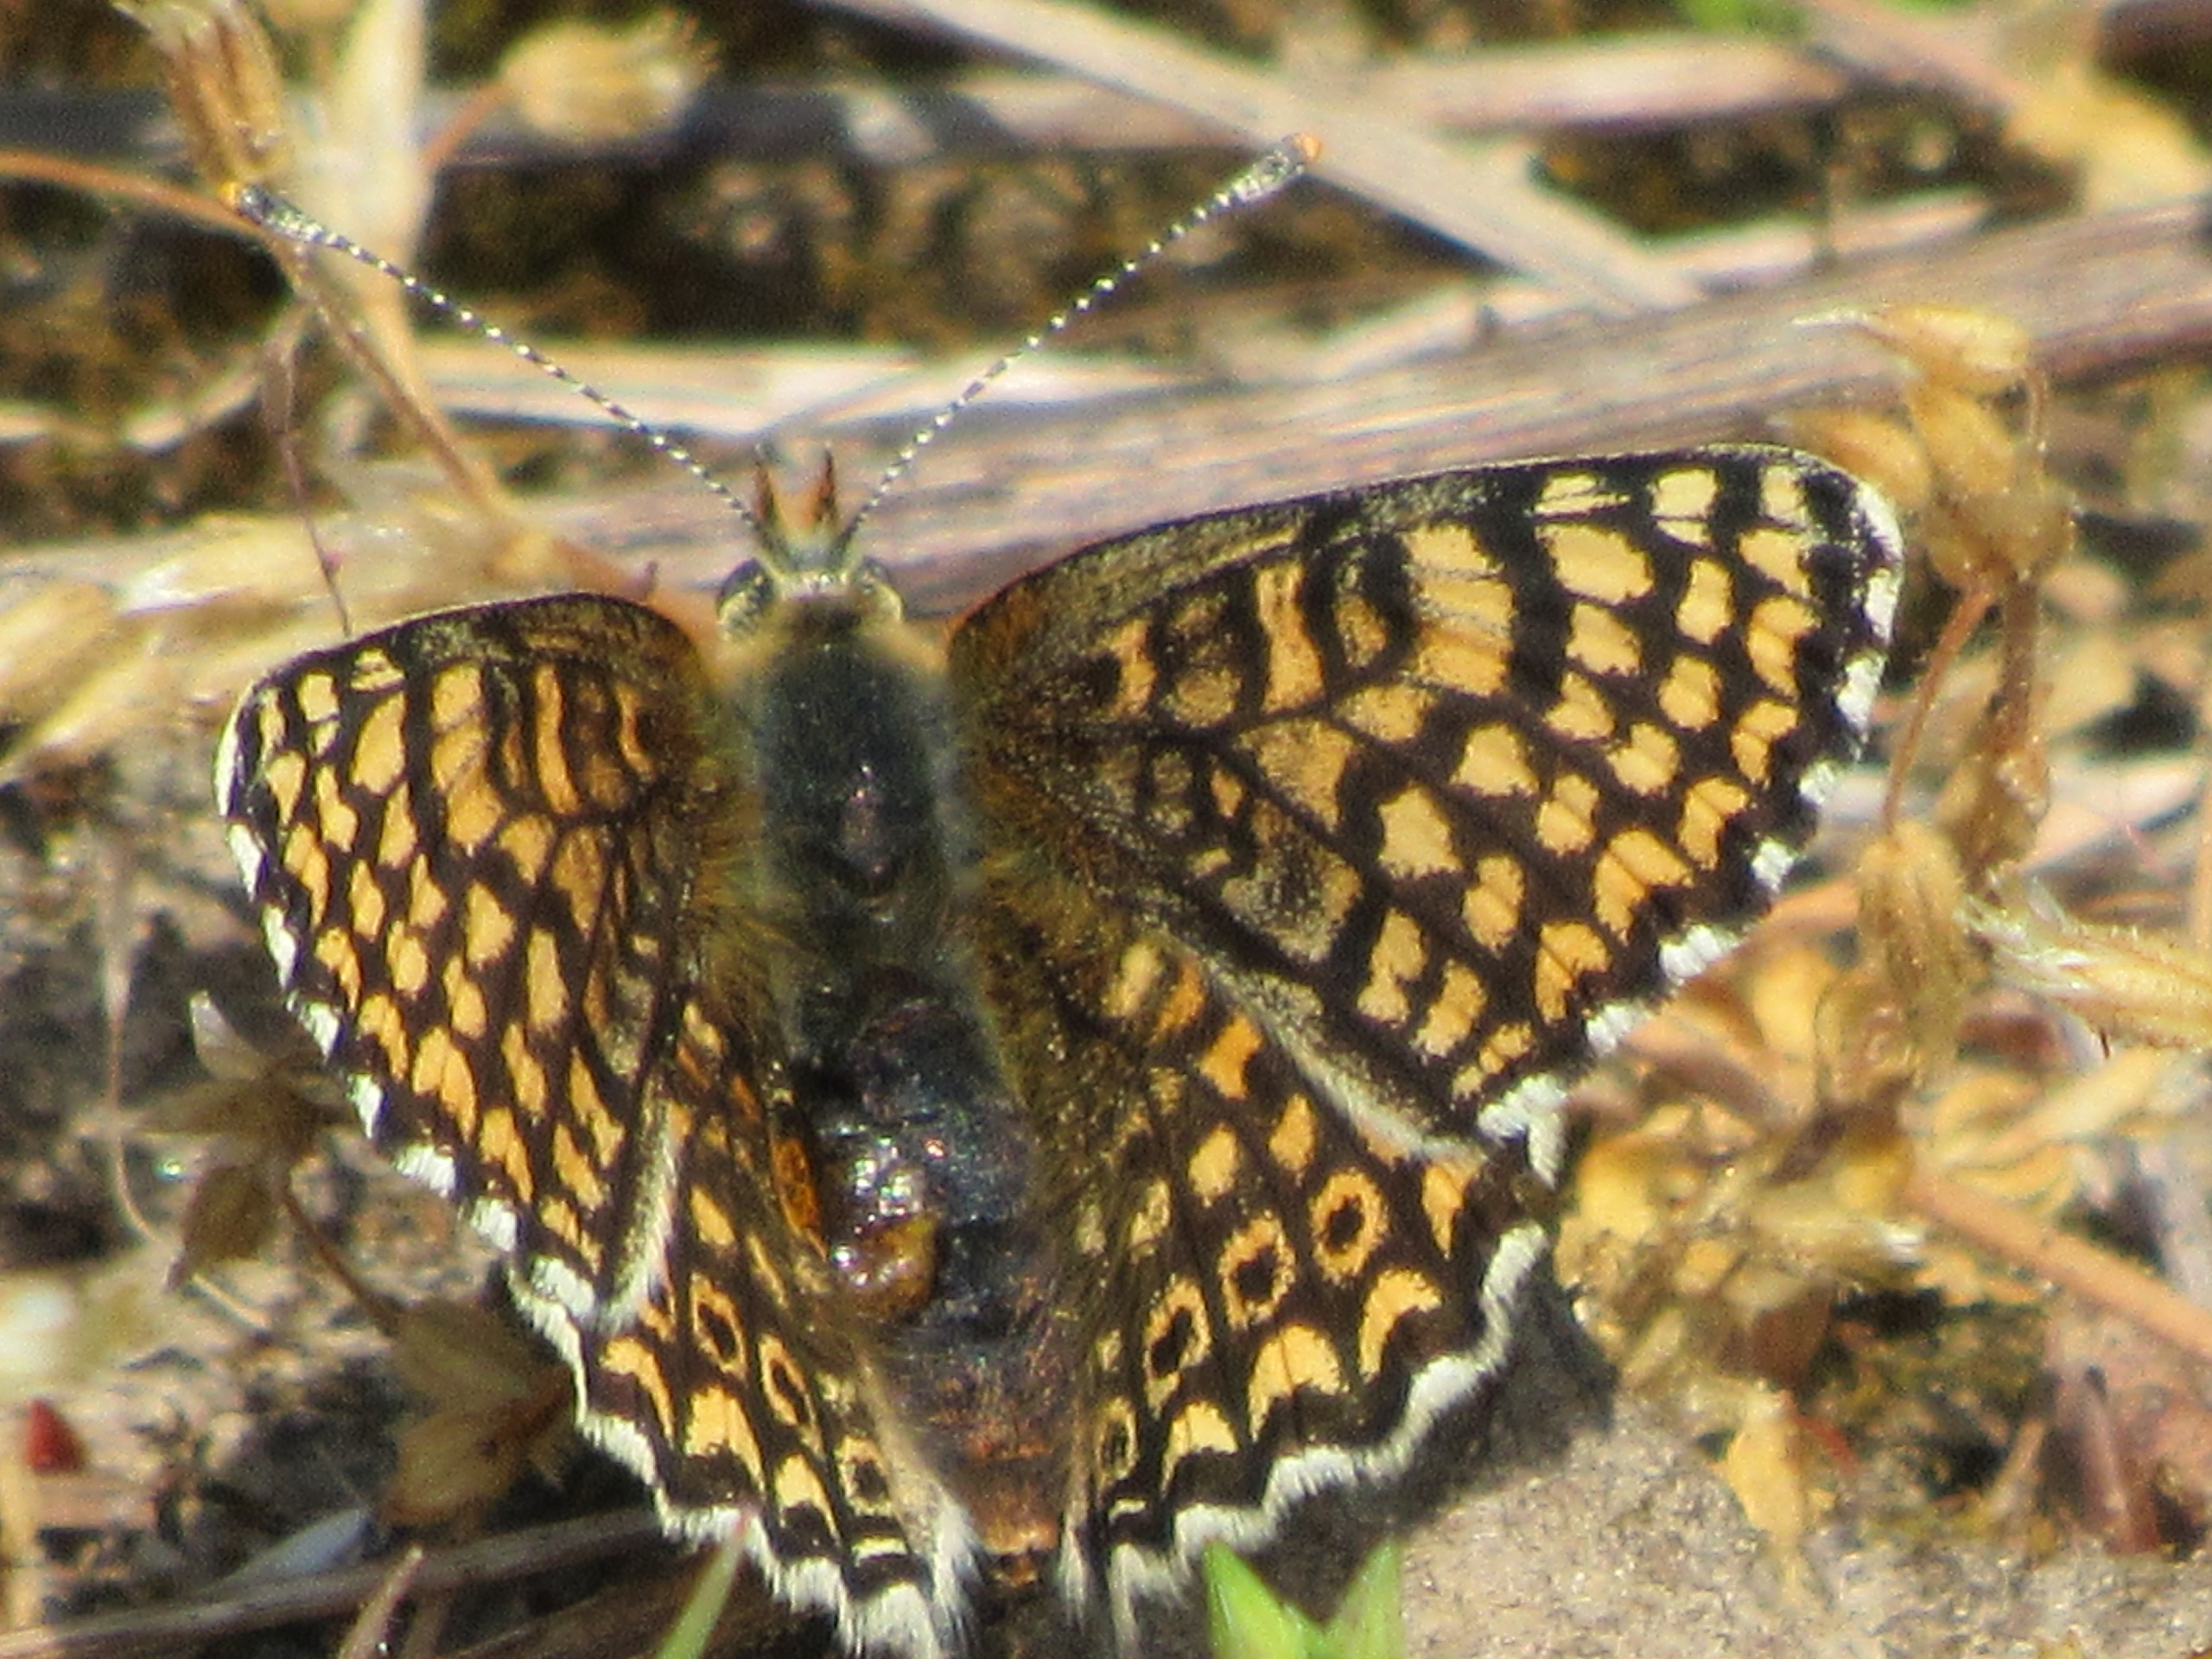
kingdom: Animalia
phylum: Arthropoda
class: Insecta
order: Lepidoptera
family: Nymphalidae
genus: Melitaea
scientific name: Melitaea cinxia
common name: Okkergul pletvinge
